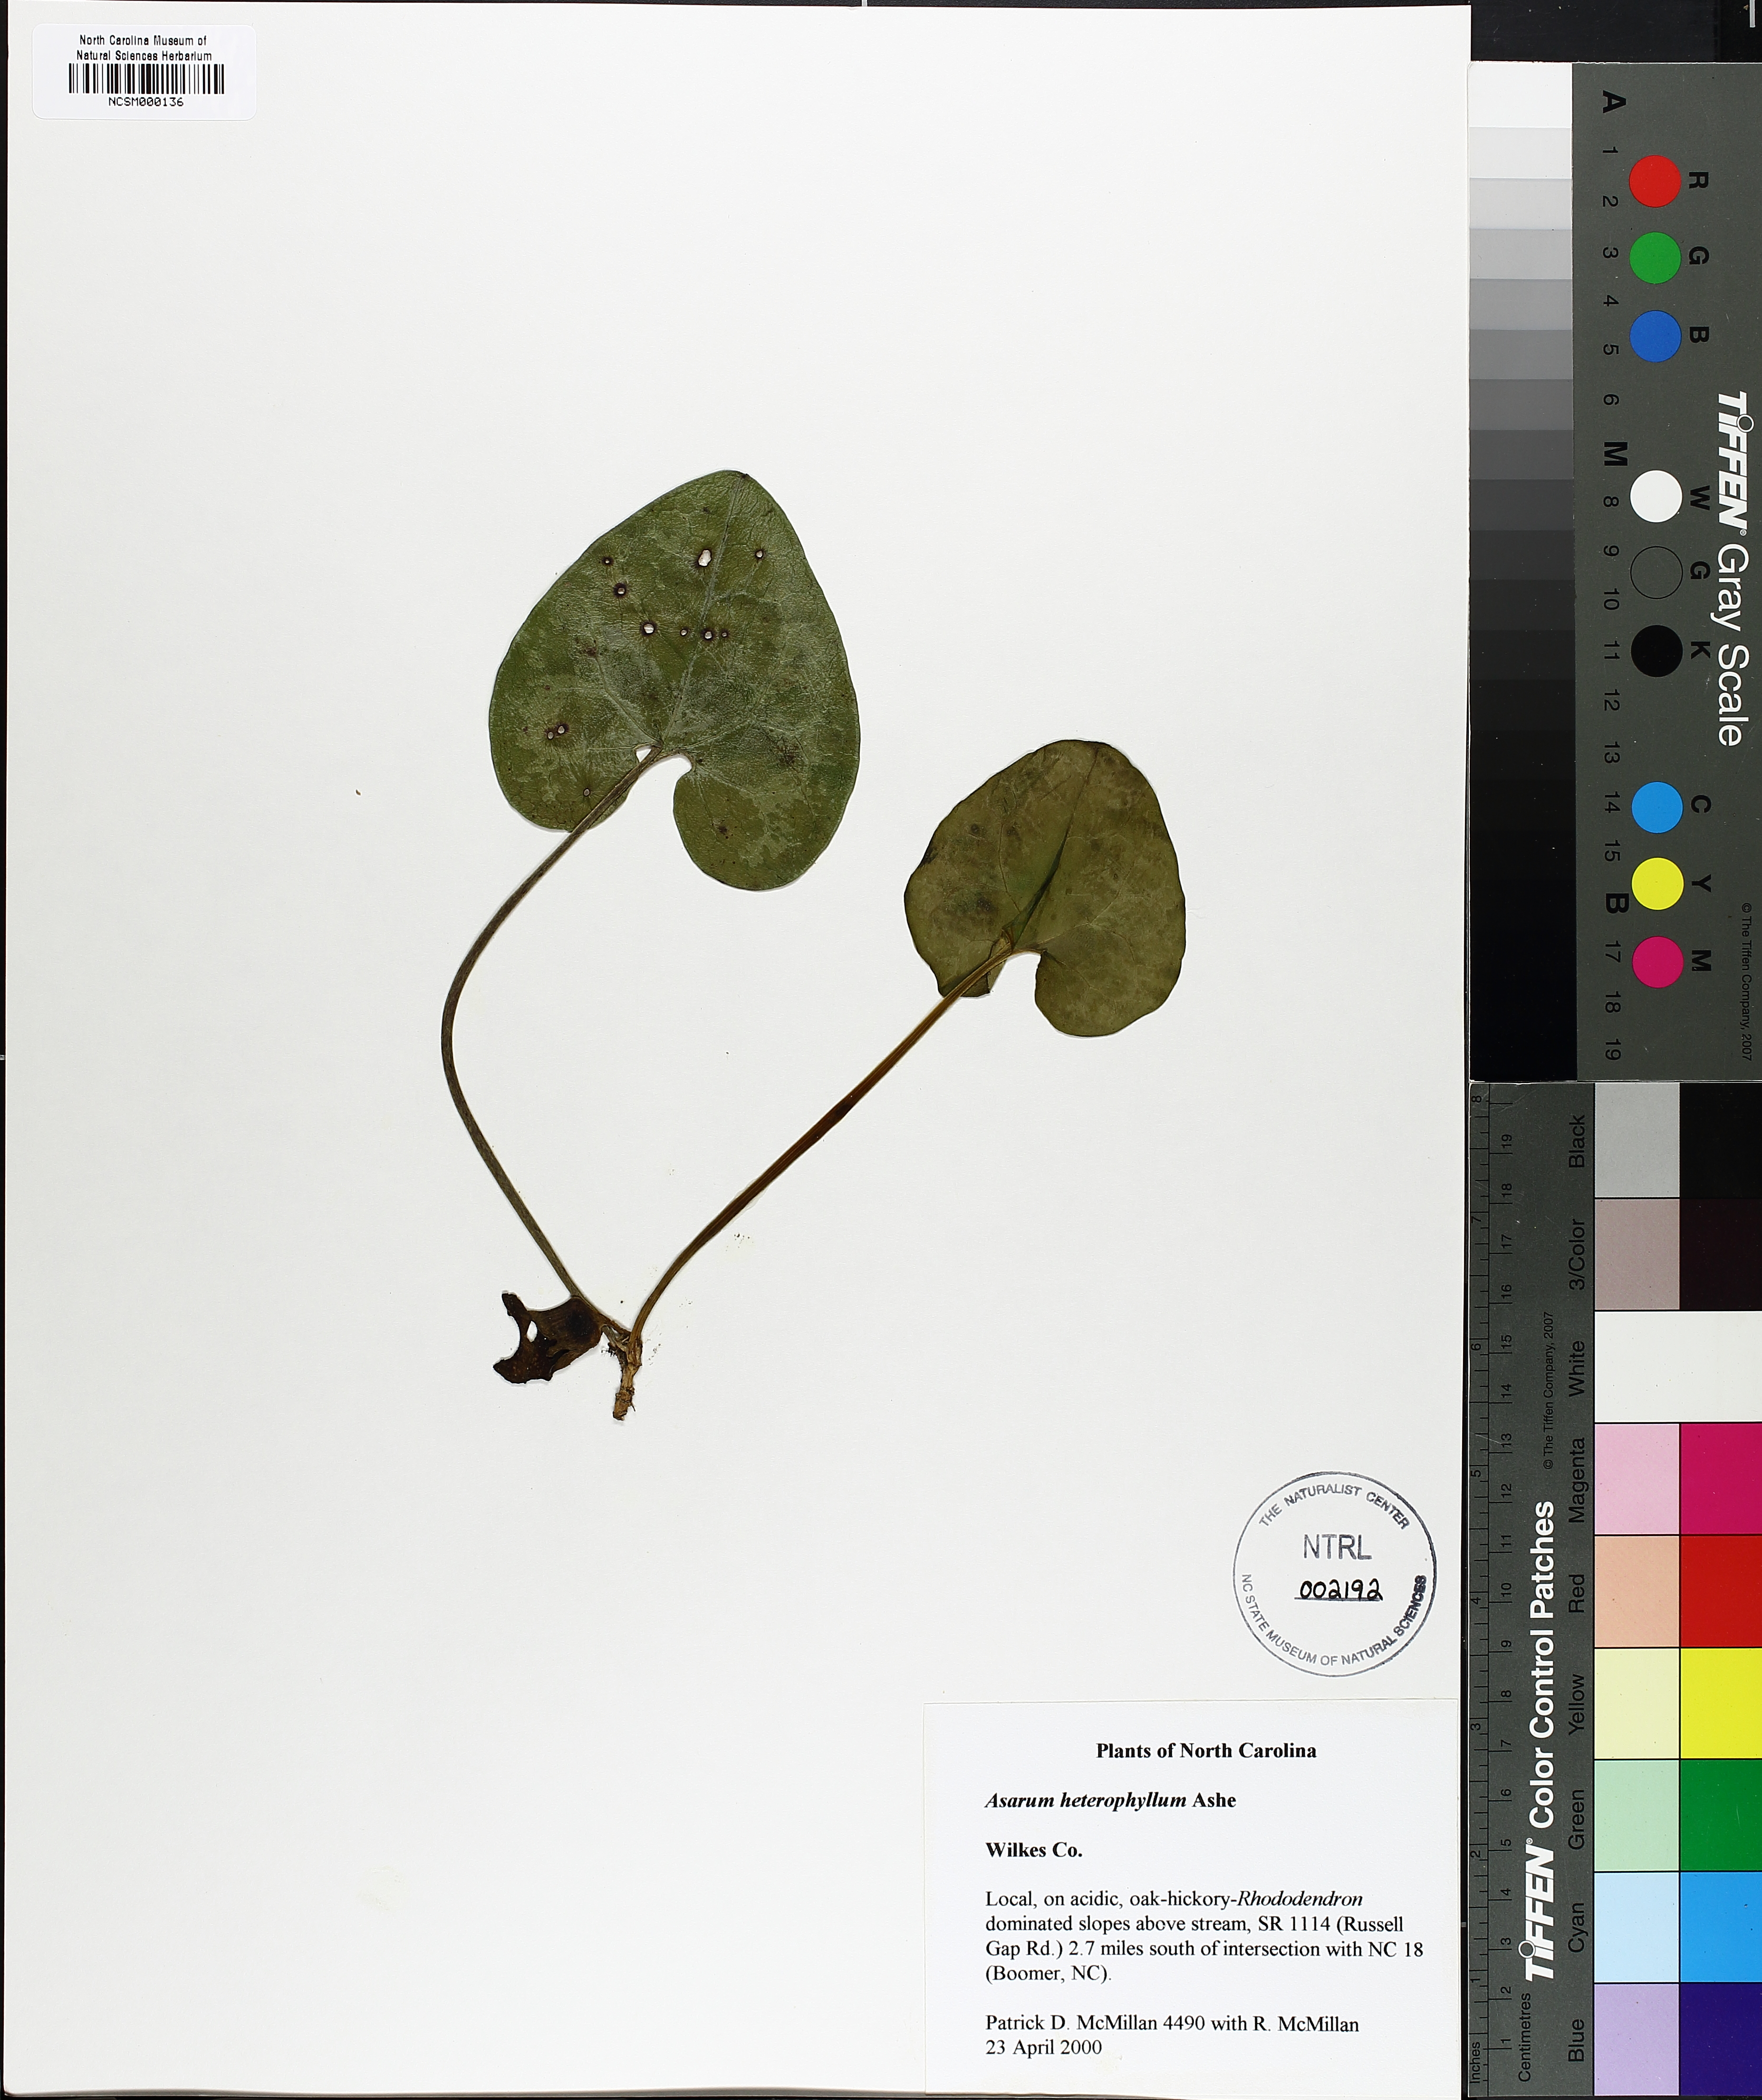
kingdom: Plantae
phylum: Tracheophyta
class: Magnoliopsida
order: Piperales
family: Aristolochiaceae
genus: Hexastylis
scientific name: Hexastylis heterophylla
